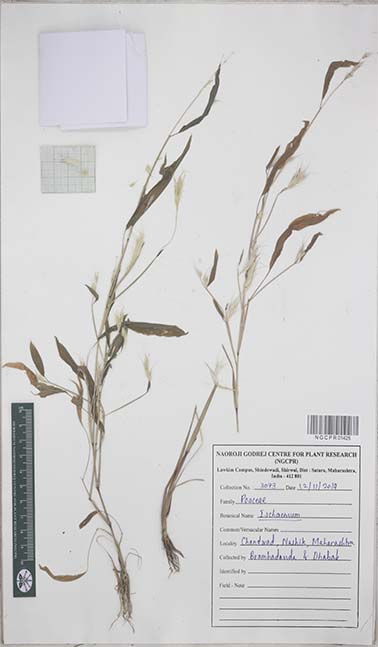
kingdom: Plantae
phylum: Tracheophyta
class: Liliopsida
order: Poales
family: Poaceae
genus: Ischaemum
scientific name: Ischaemum
